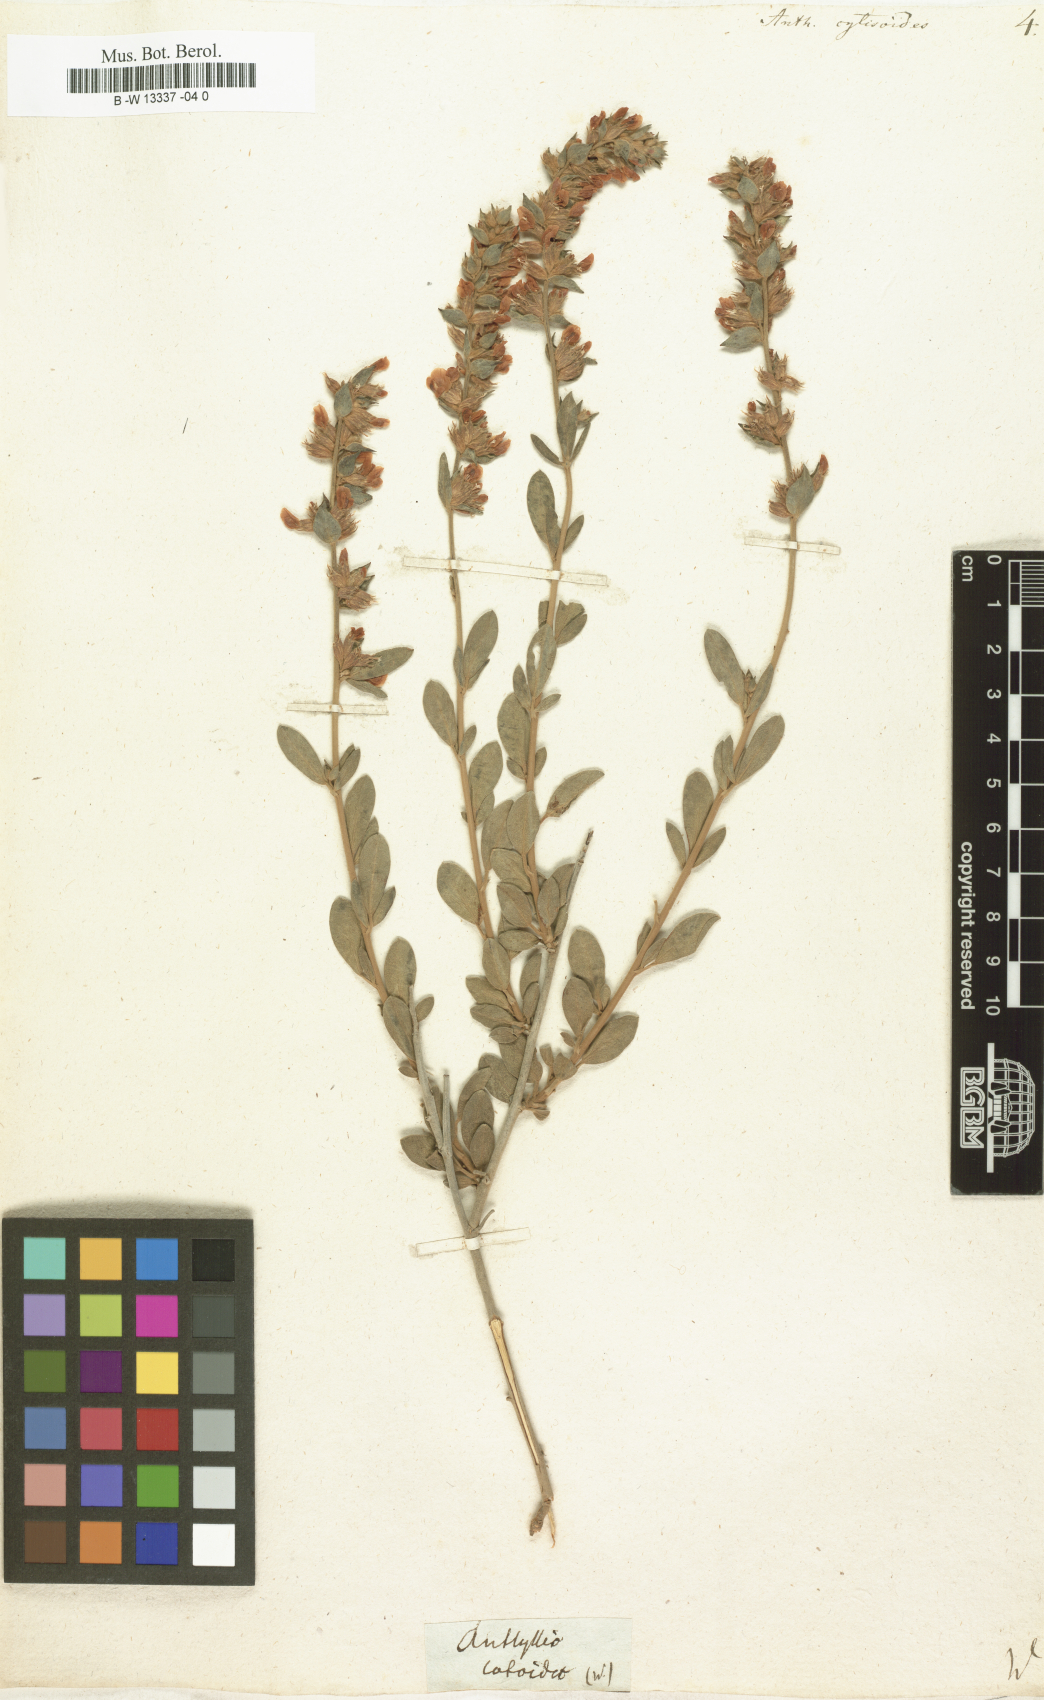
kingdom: Plantae
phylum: Tracheophyta
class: Magnoliopsida
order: Fabales
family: Fabaceae
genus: Anthyllis
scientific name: Anthyllis cytisoides
